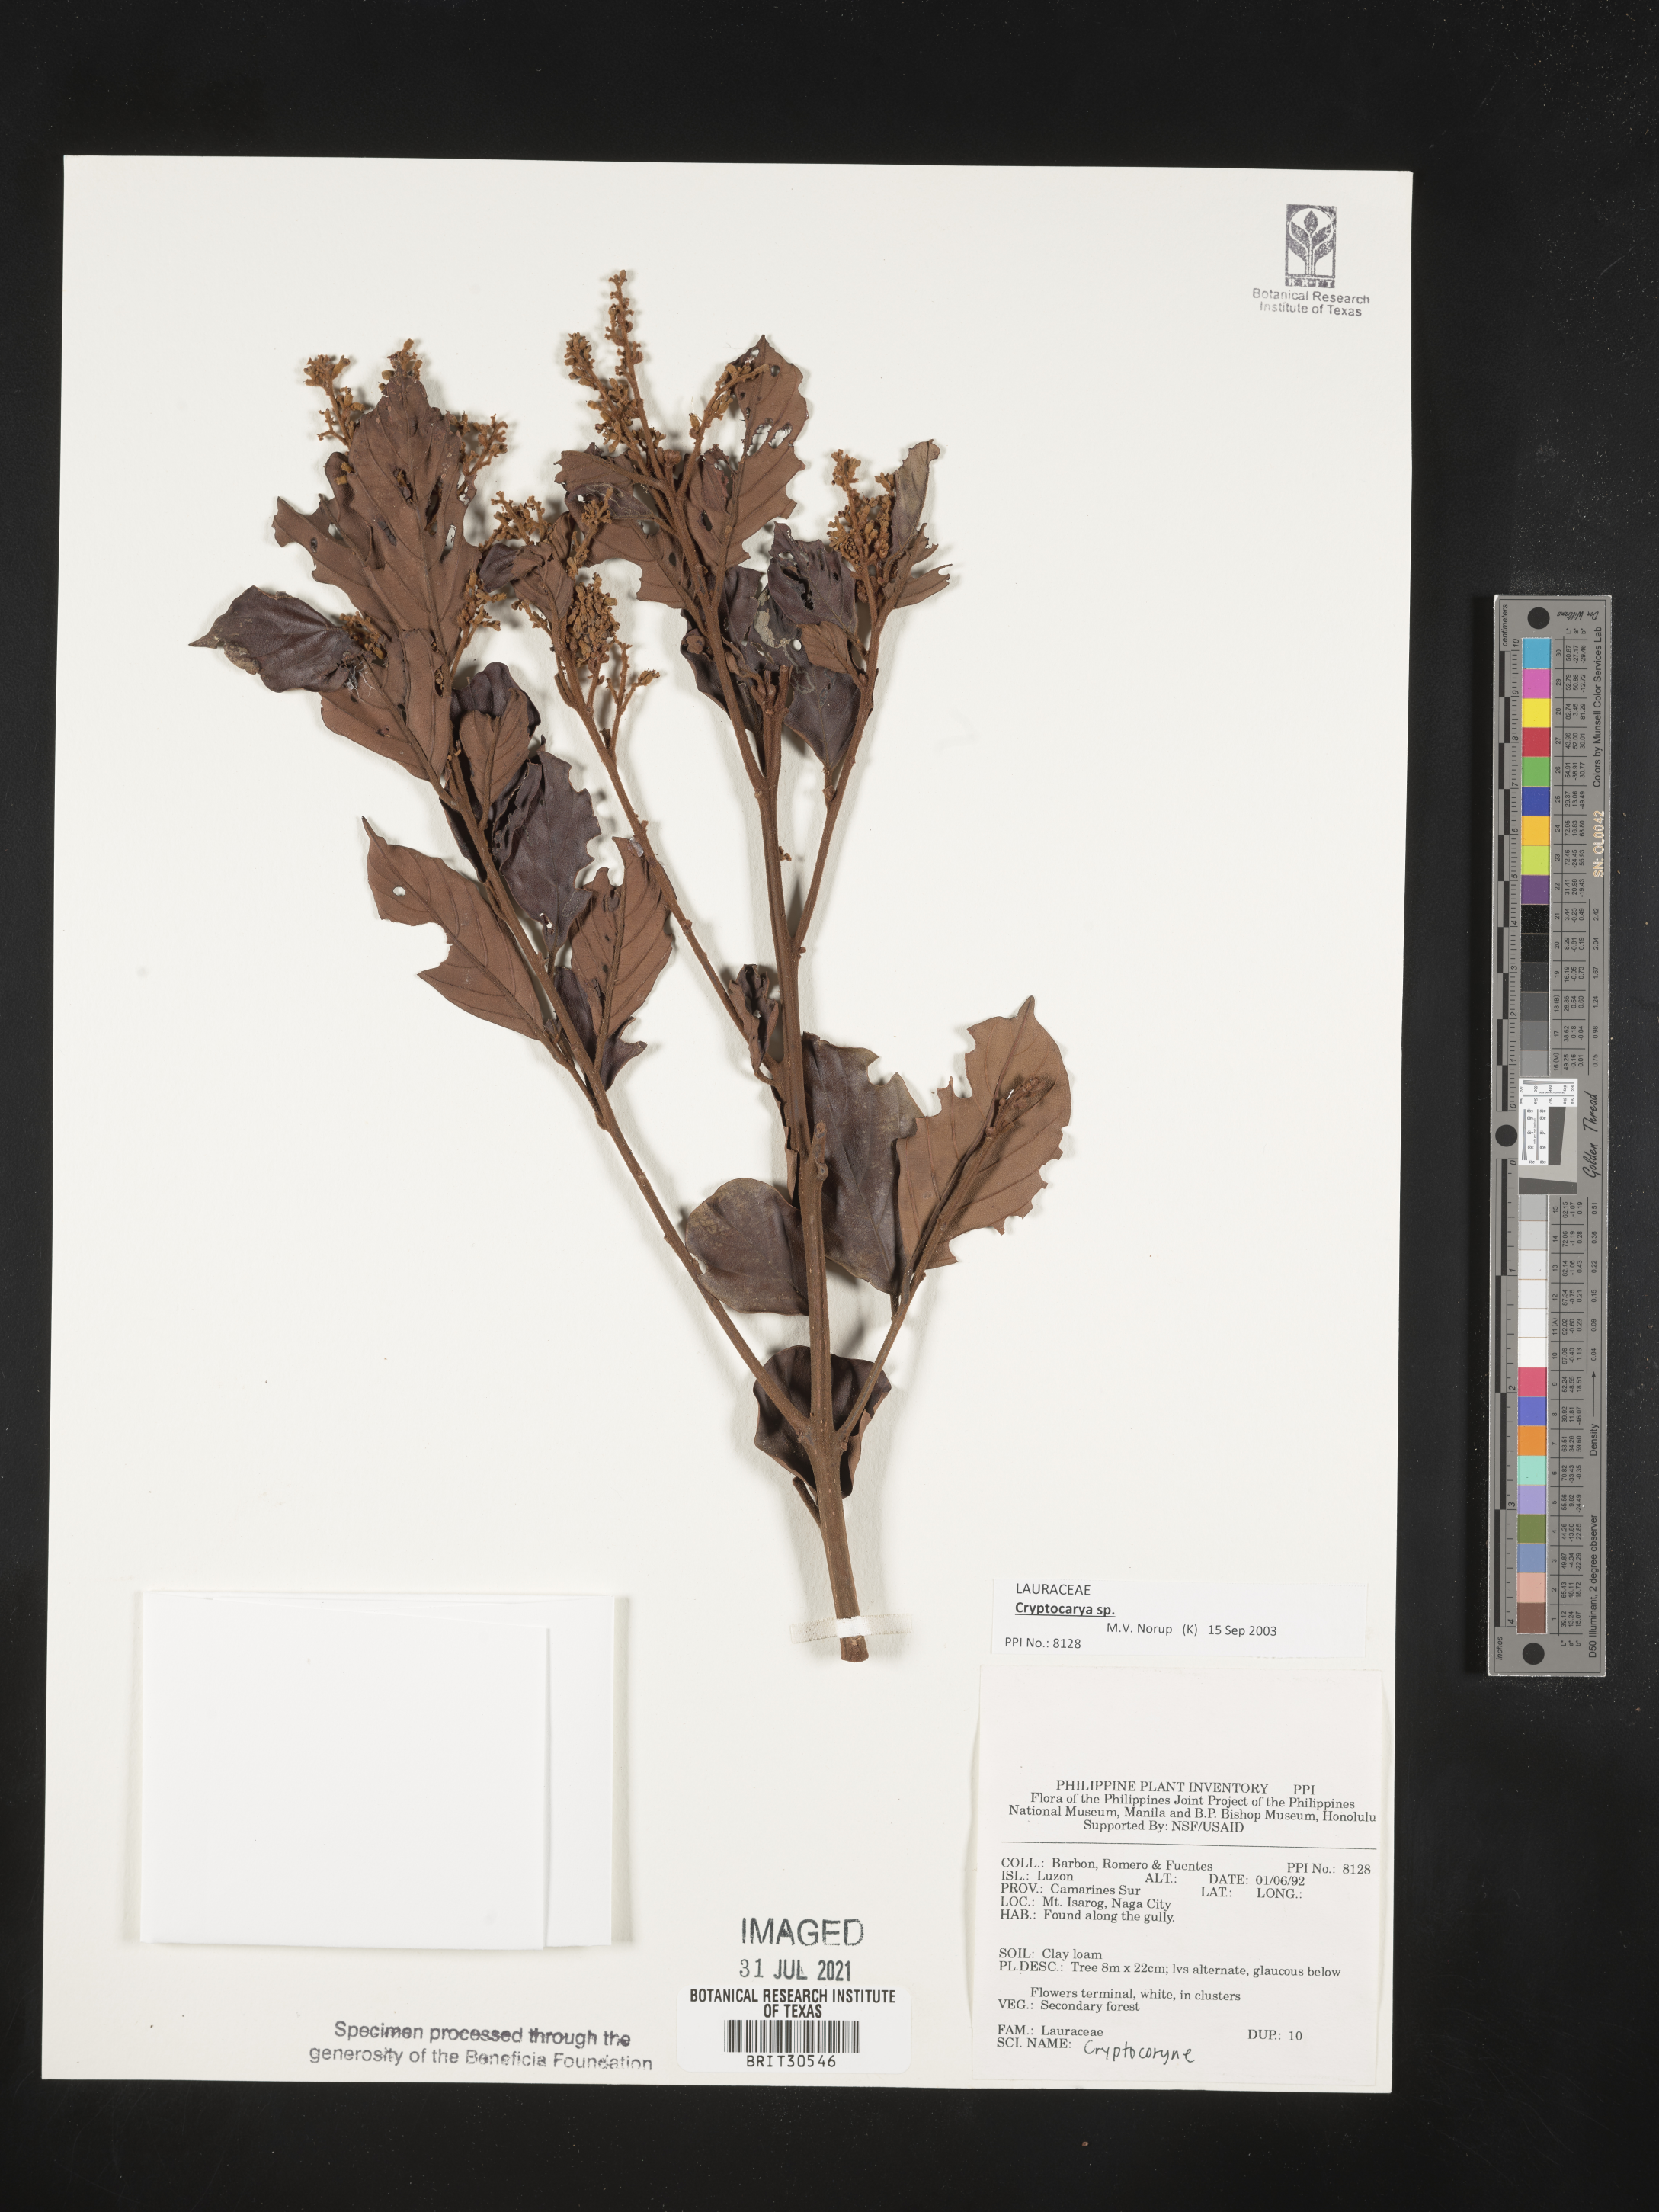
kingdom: Plantae
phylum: Tracheophyta
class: Liliopsida
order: Alismatales
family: Araceae
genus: Cryptocoryne
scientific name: Cryptocoryne
